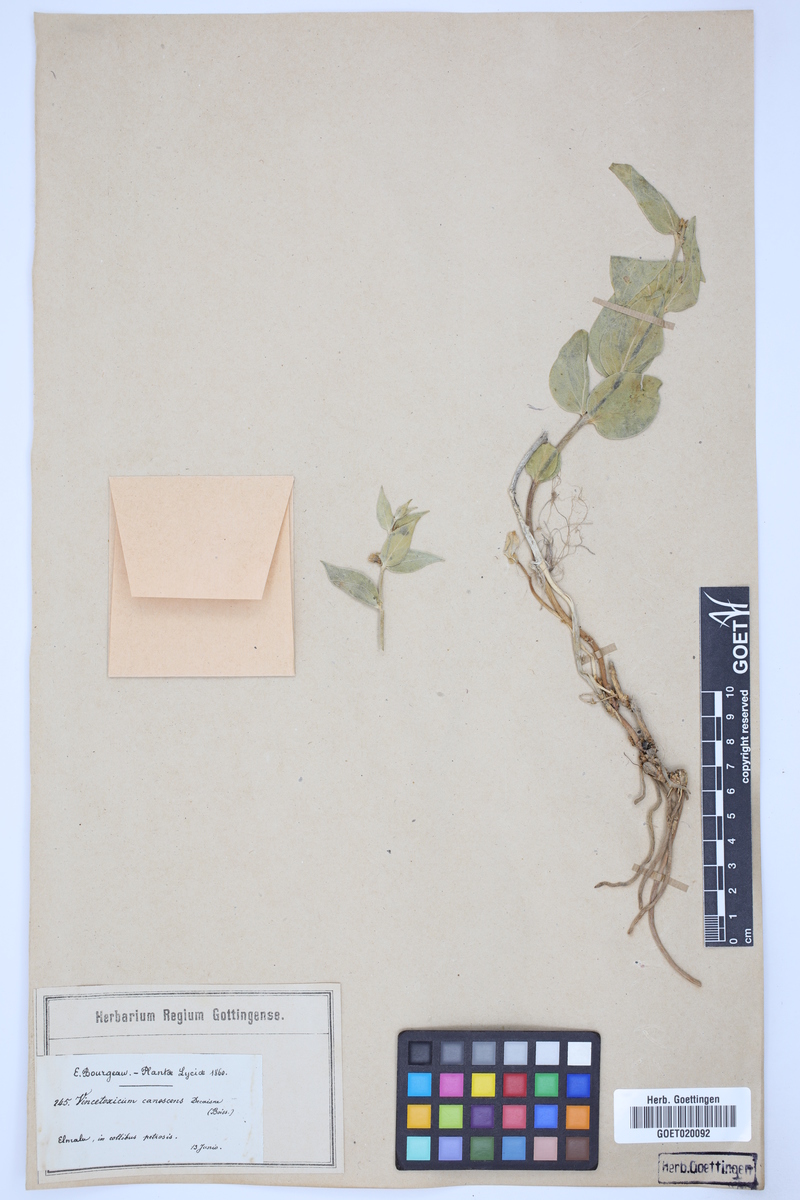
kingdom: Plantae
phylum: Tracheophyta
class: Magnoliopsida
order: Gentianales
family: Apocynaceae
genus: Vincetoxicum
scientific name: Vincetoxicum canescens
